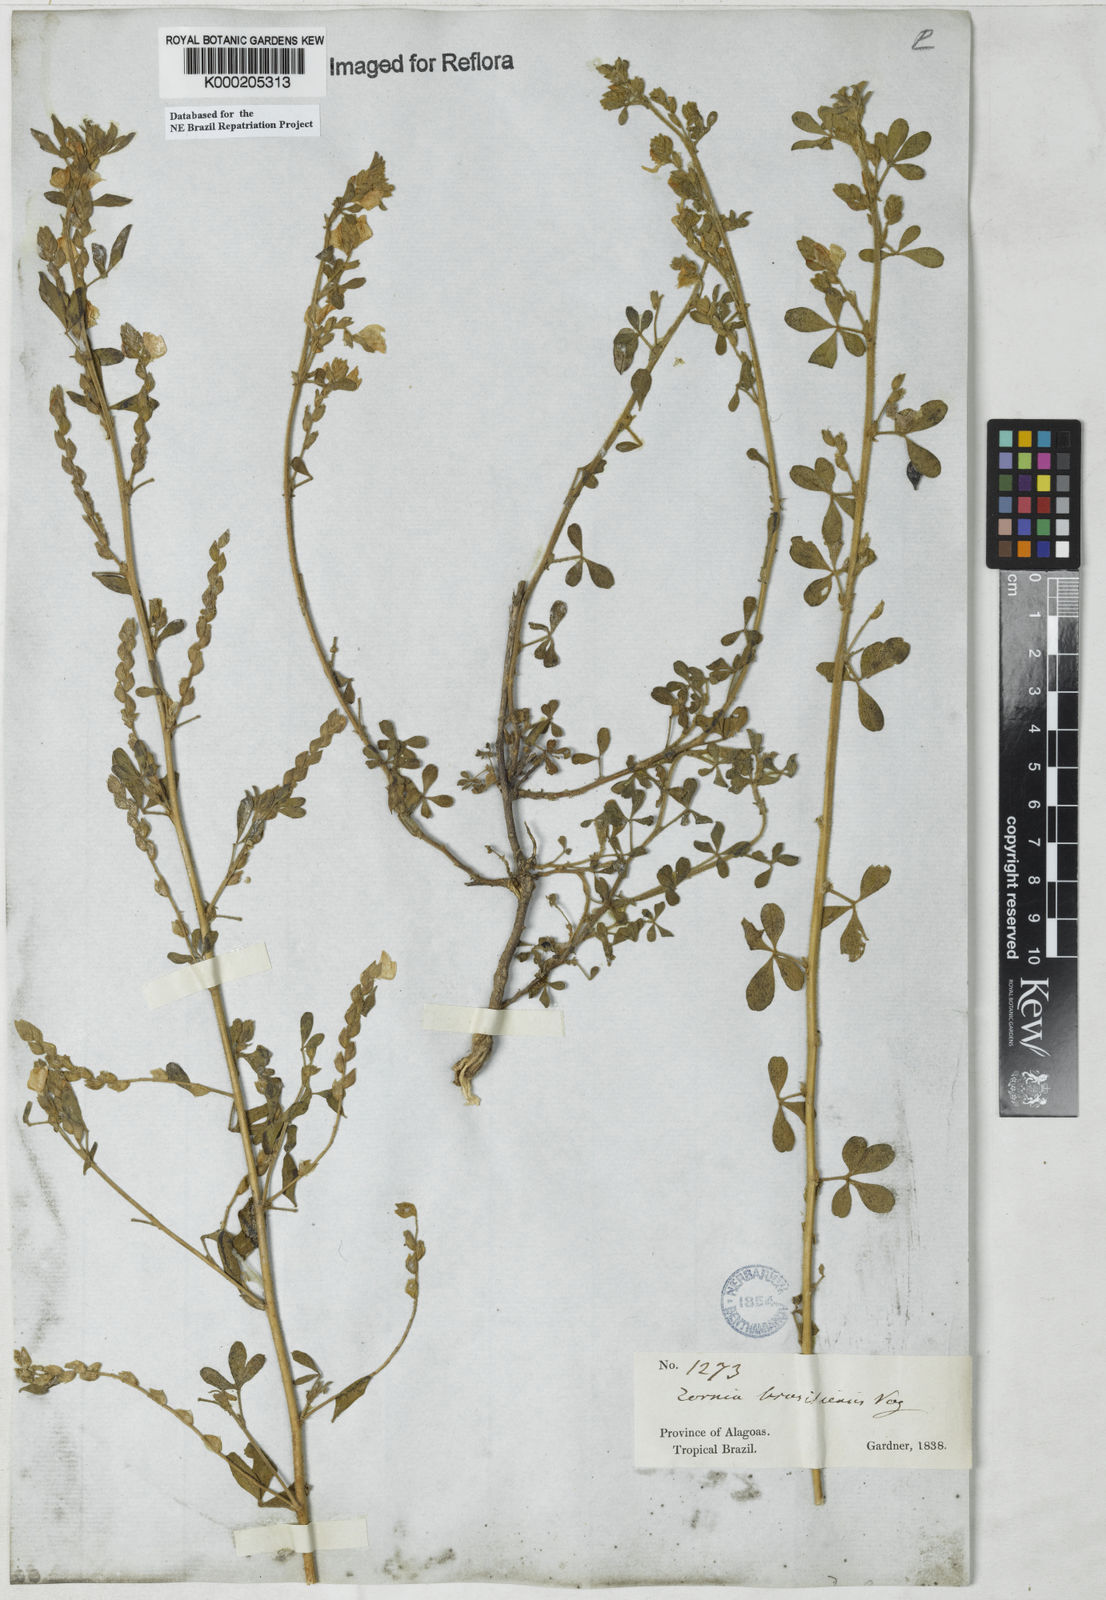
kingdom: Plantae
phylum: Tracheophyta
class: Magnoliopsida
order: Fabales
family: Fabaceae
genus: Zornia
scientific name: Zornia brasiliensis
